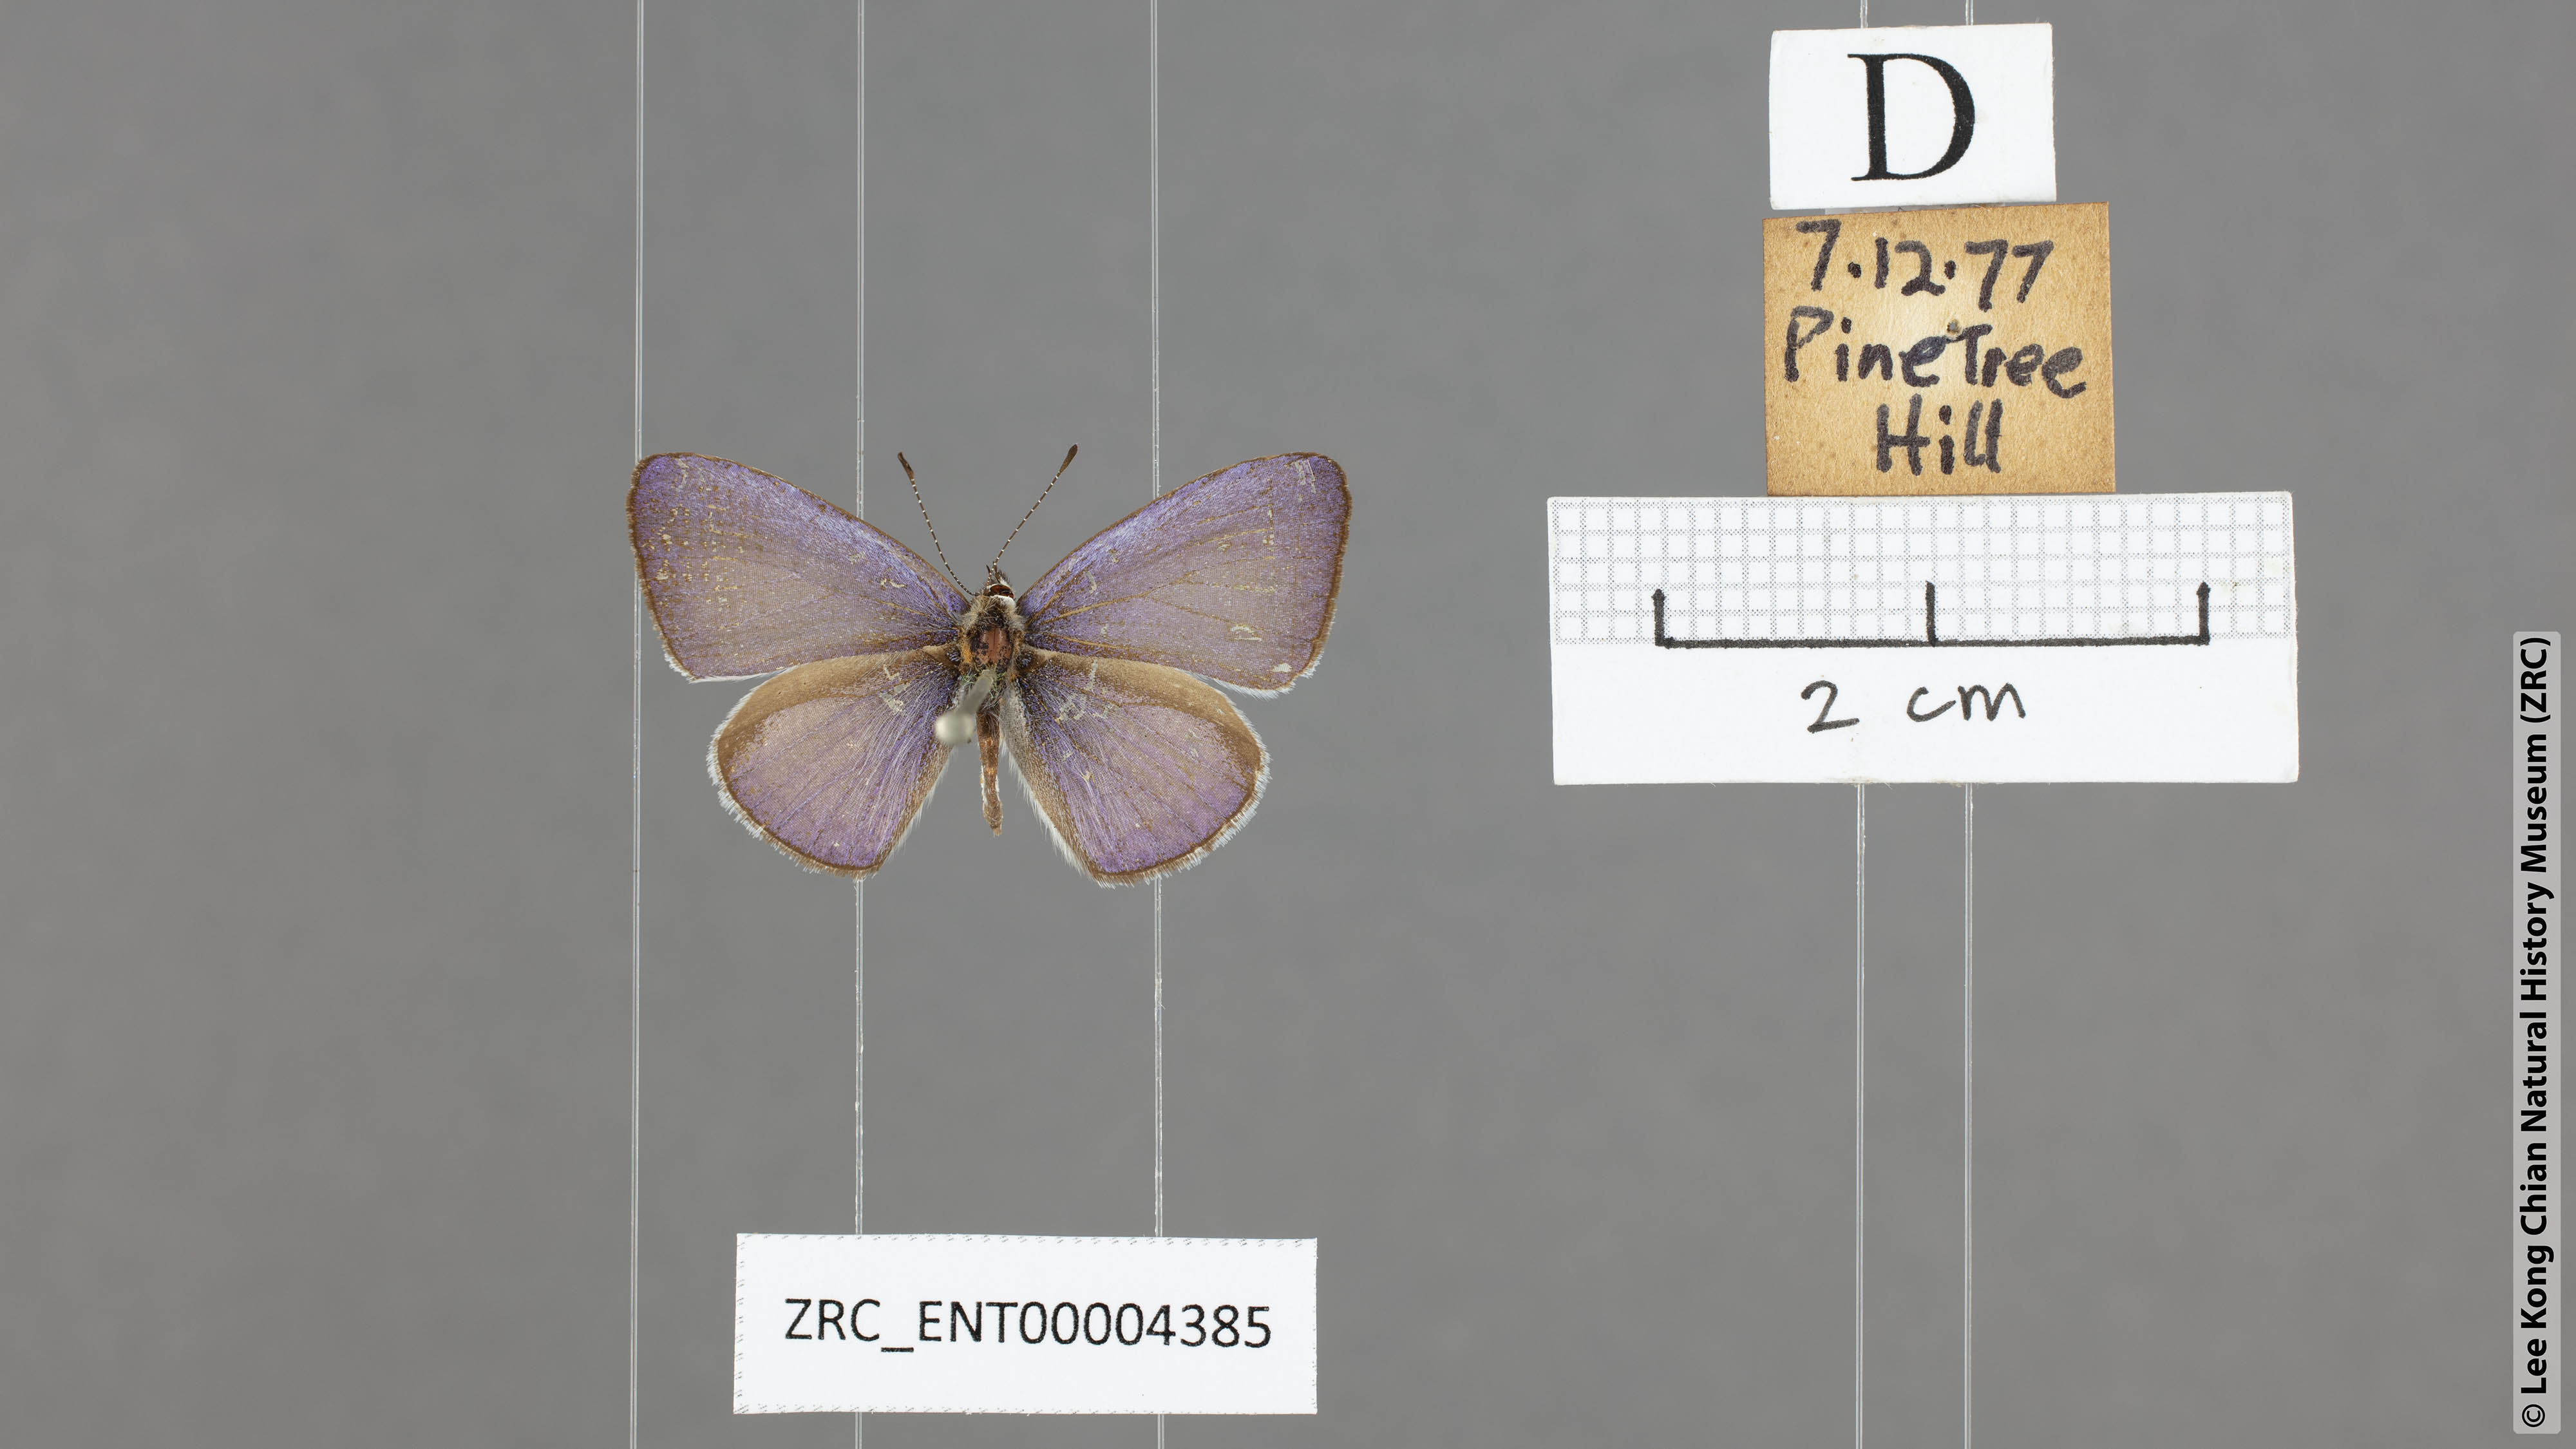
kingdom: Animalia
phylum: Arthropoda
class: Insecta
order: Lepidoptera
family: Lycaenidae
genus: Monodontides
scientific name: Monodontides
